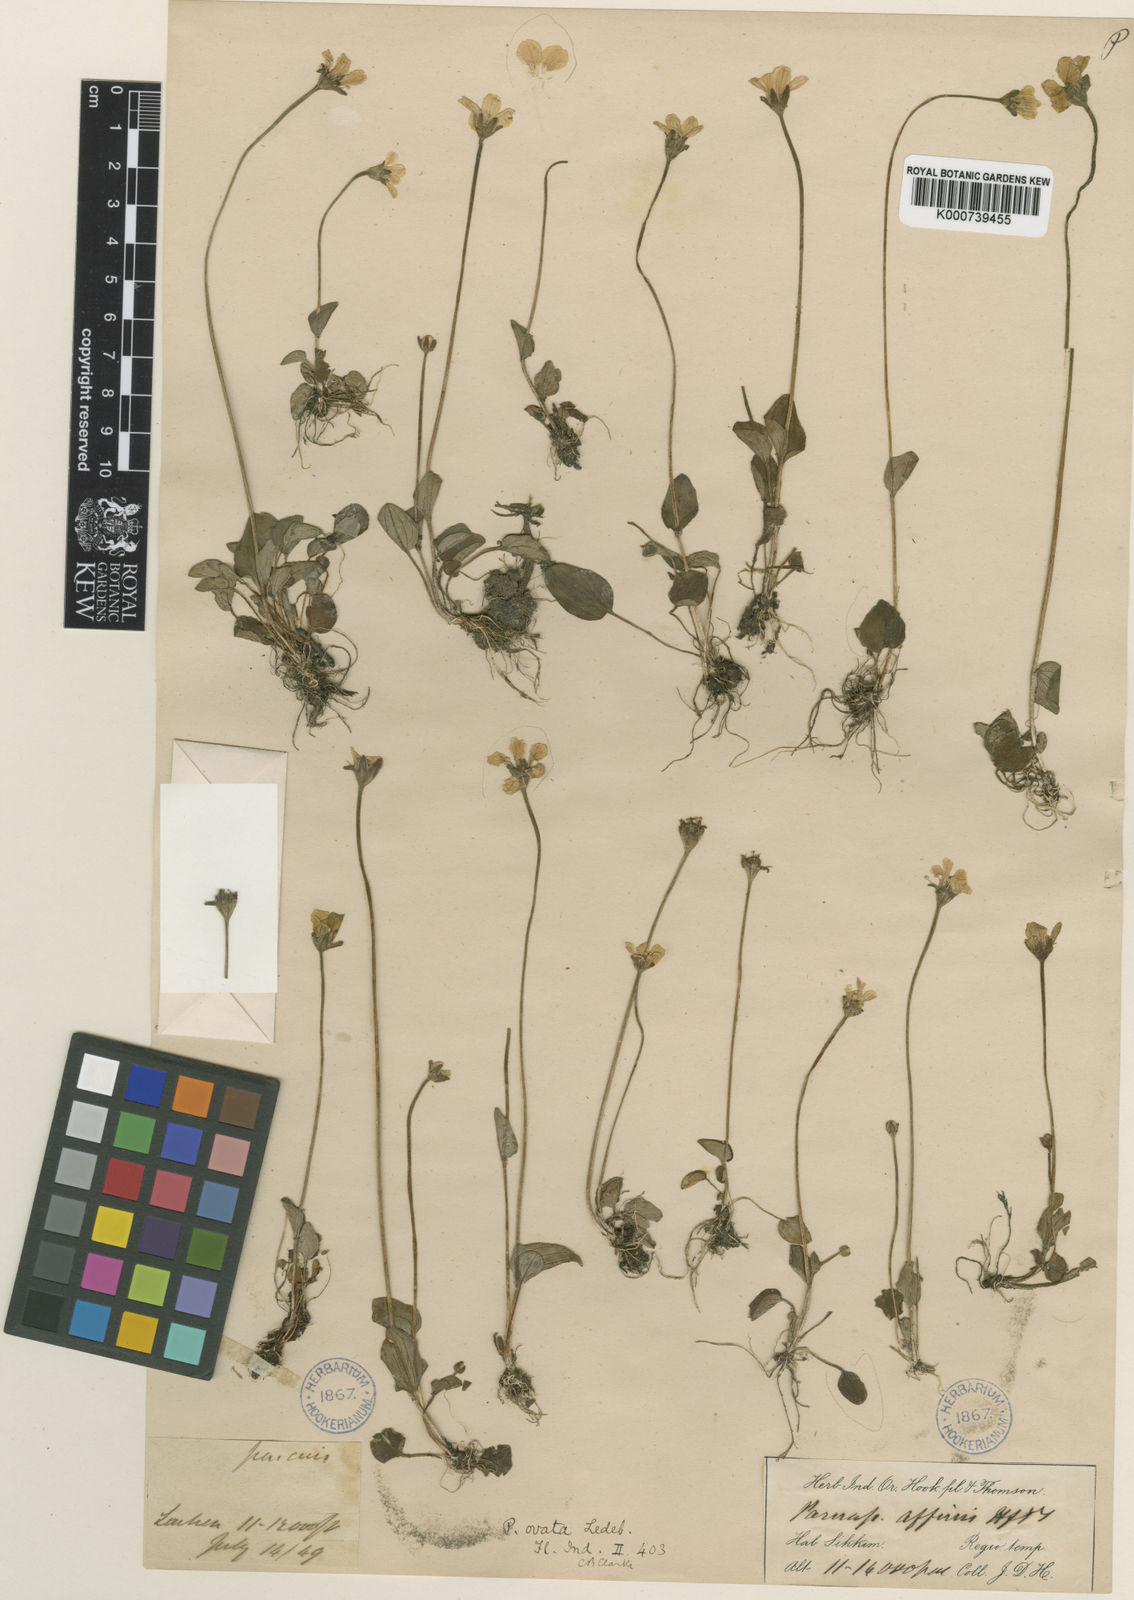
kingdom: Plantae
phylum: Tracheophyta
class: Magnoliopsida
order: Celastrales
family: Parnassiaceae
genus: Parnassia
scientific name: Parnassia mysorensis
